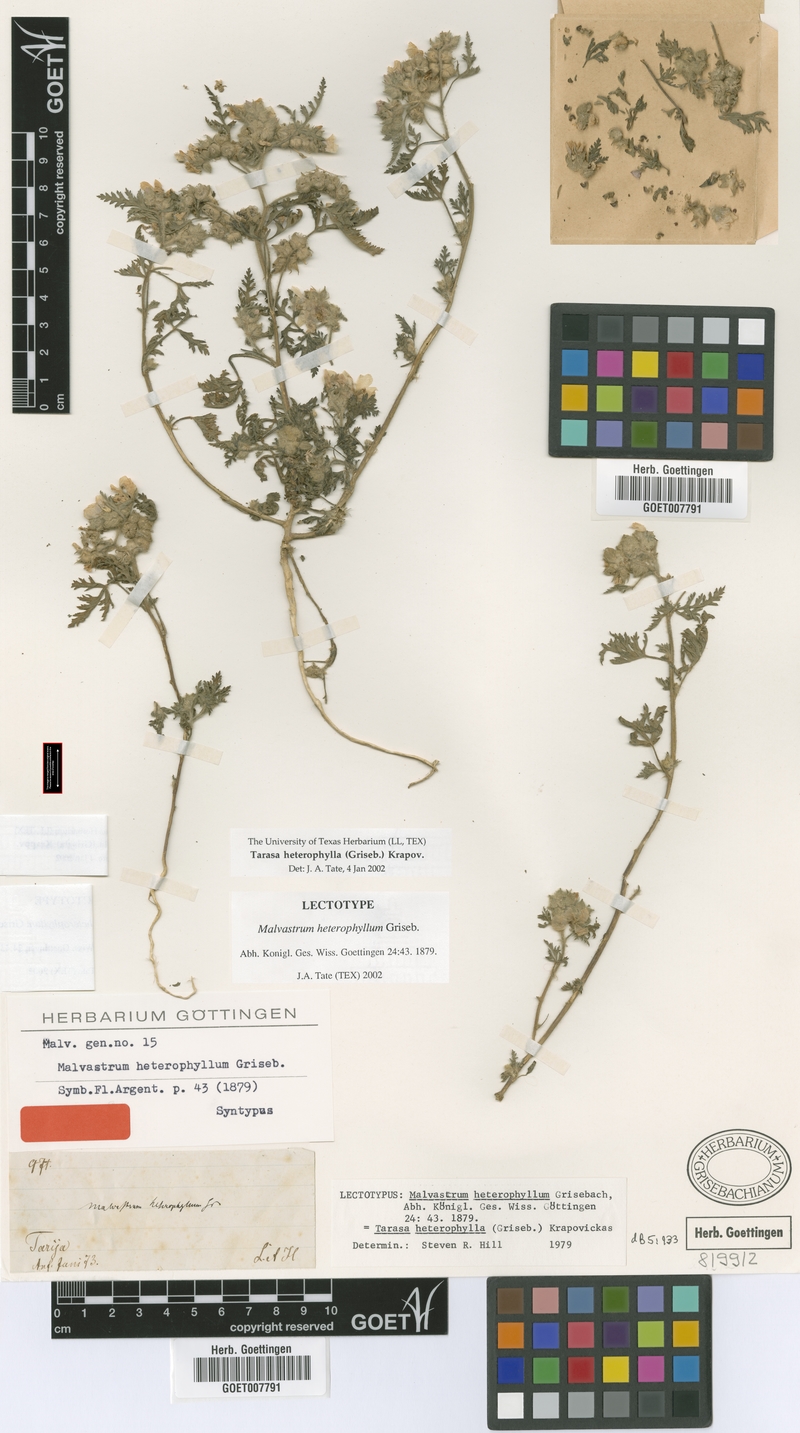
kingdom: Plantae
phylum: Tracheophyta
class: Magnoliopsida
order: Malvales
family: Malvaceae
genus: Tarasa
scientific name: Tarasa heterophylla
